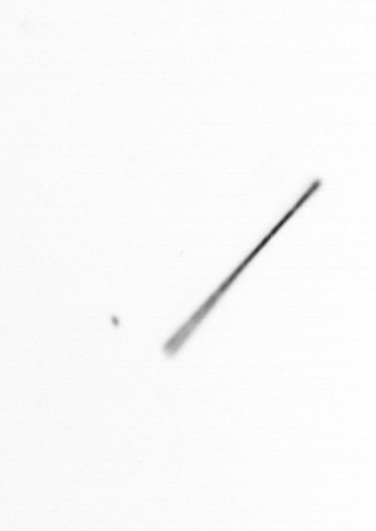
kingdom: Chromista
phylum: Ochrophyta
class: Bacillariophyceae
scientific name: Bacillariophyceae
